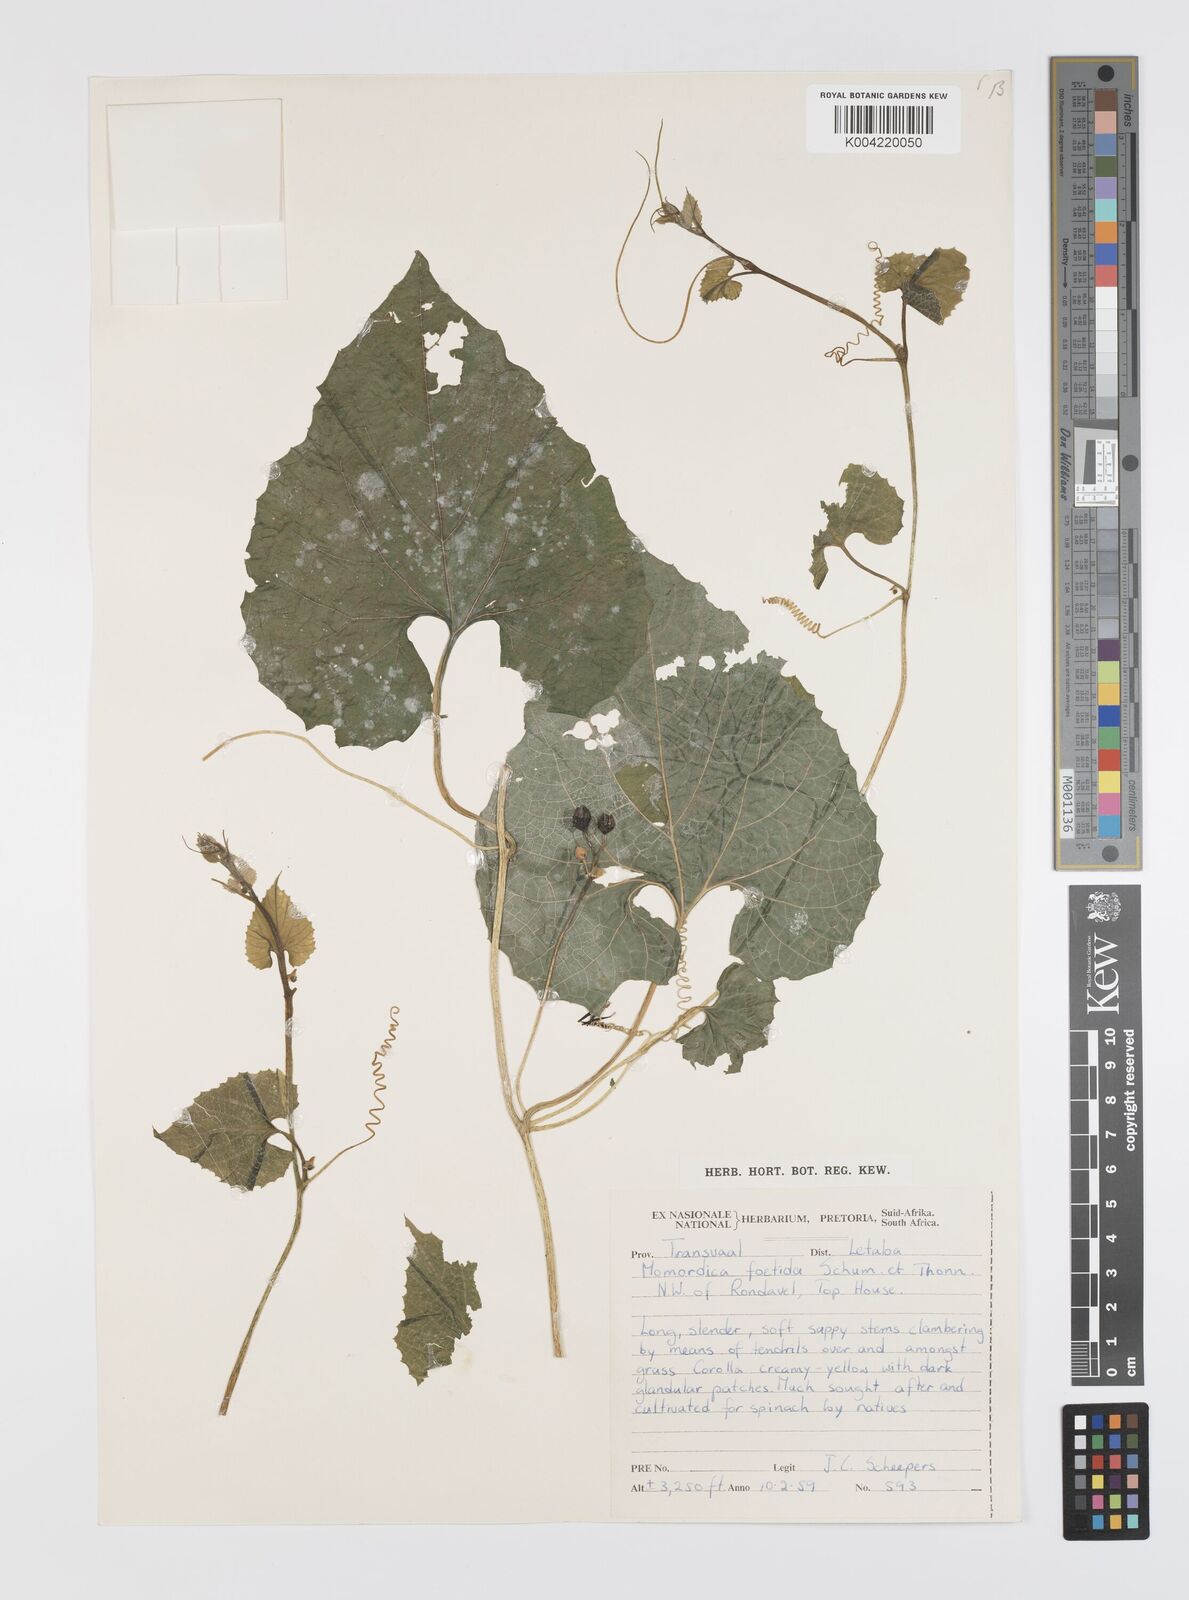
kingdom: Plantae
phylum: Tracheophyta
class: Magnoliopsida
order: Cucurbitales
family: Cucurbitaceae
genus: Momordica
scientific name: Momordica foetida
